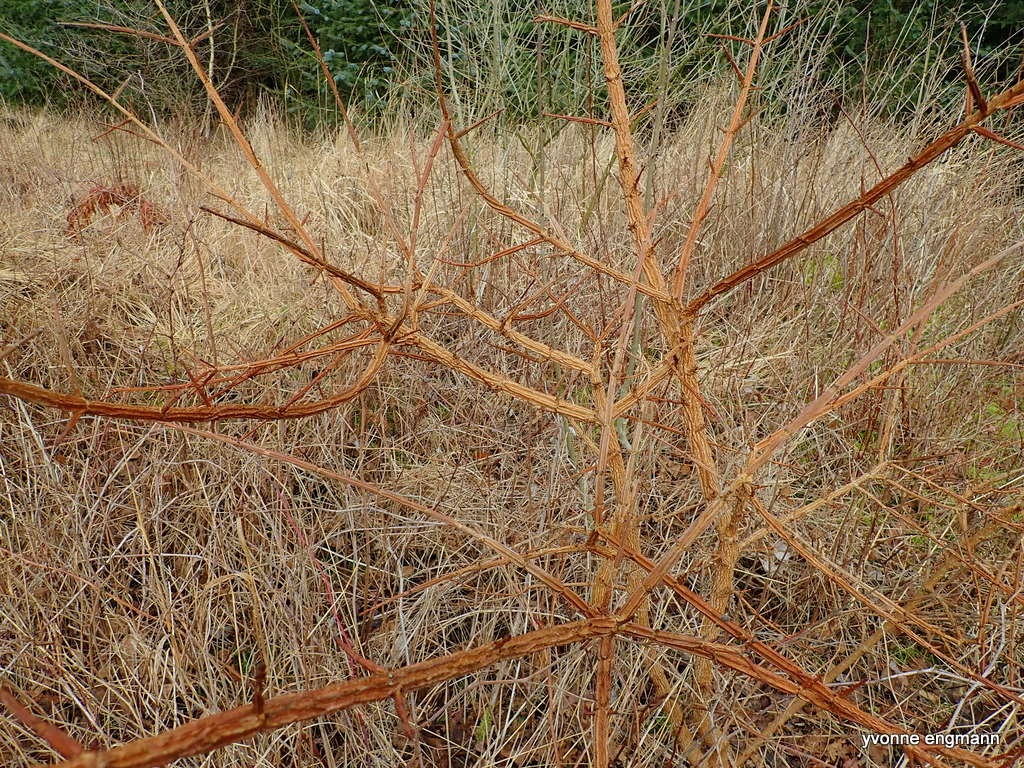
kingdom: Plantae
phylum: Tracheophyta
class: Magnoliopsida
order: Sapindales
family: Sapindaceae
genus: Acer
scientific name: Acer campestre
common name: Navr
